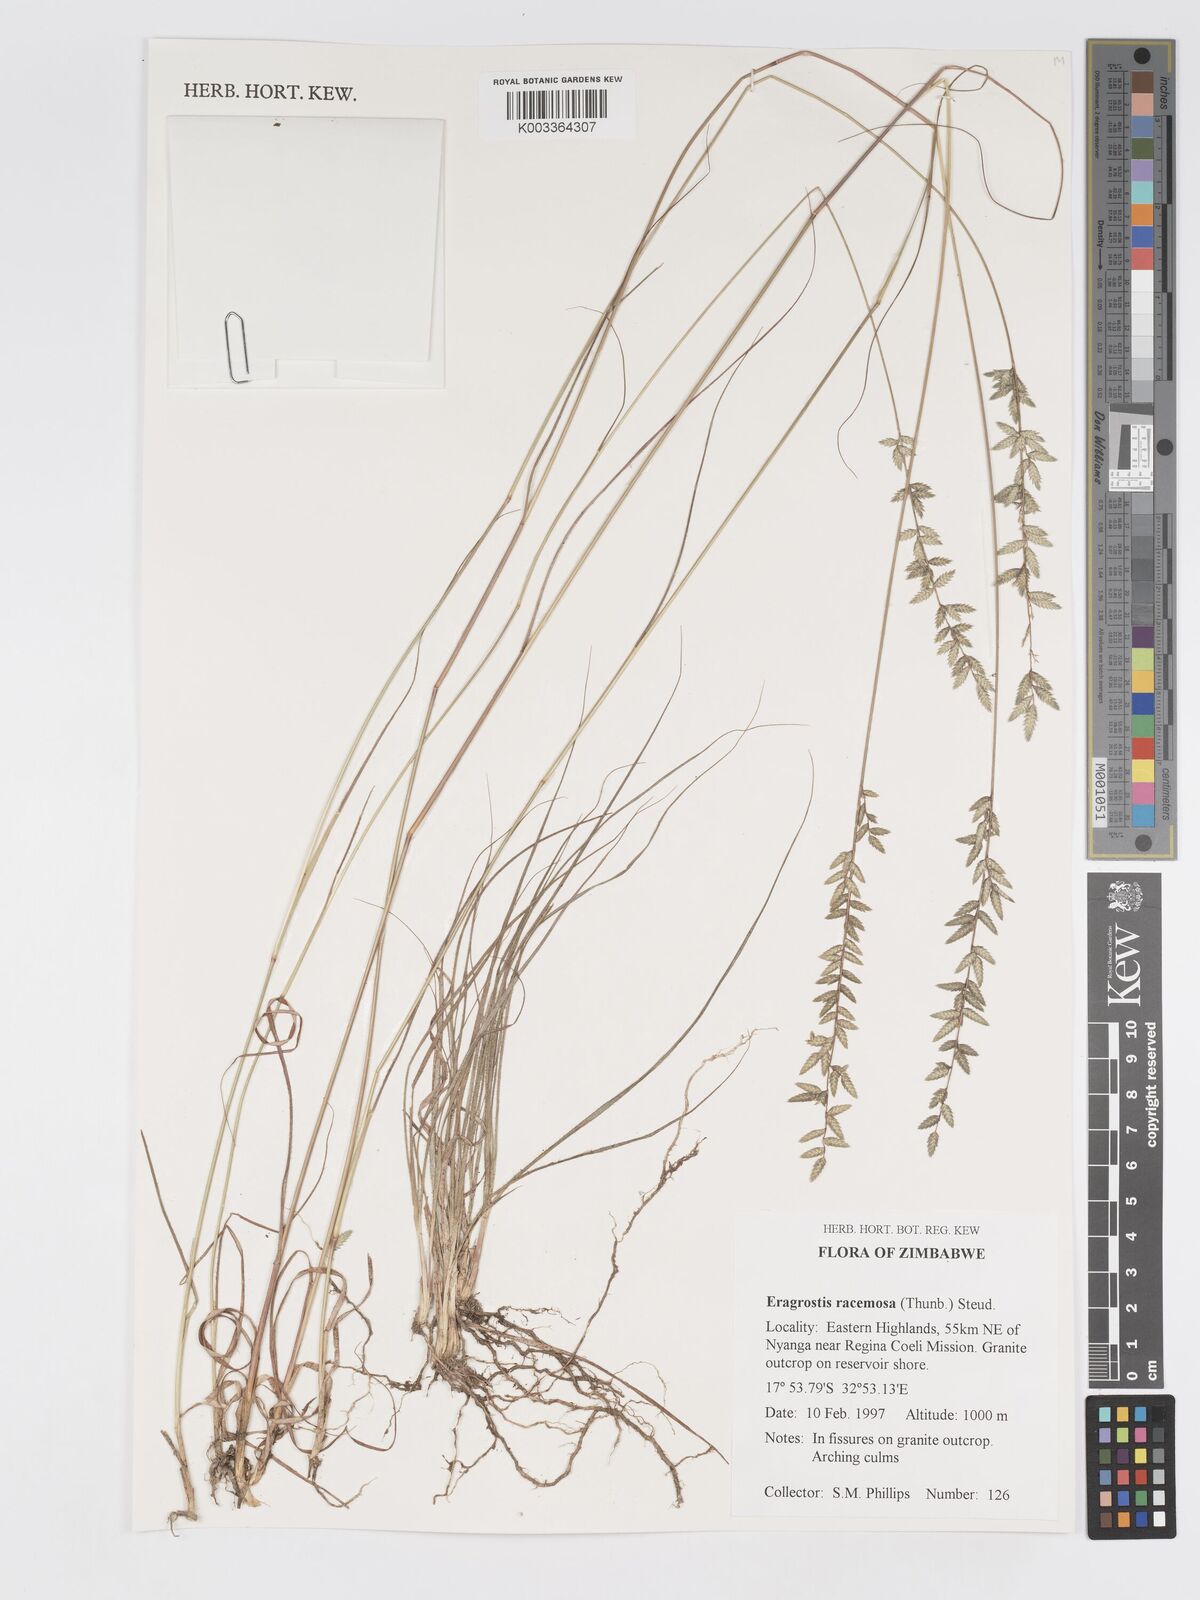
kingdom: Plantae
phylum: Tracheophyta
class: Liliopsida
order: Poales
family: Poaceae
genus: Eragrostis
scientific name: Eragrostis racemosa
